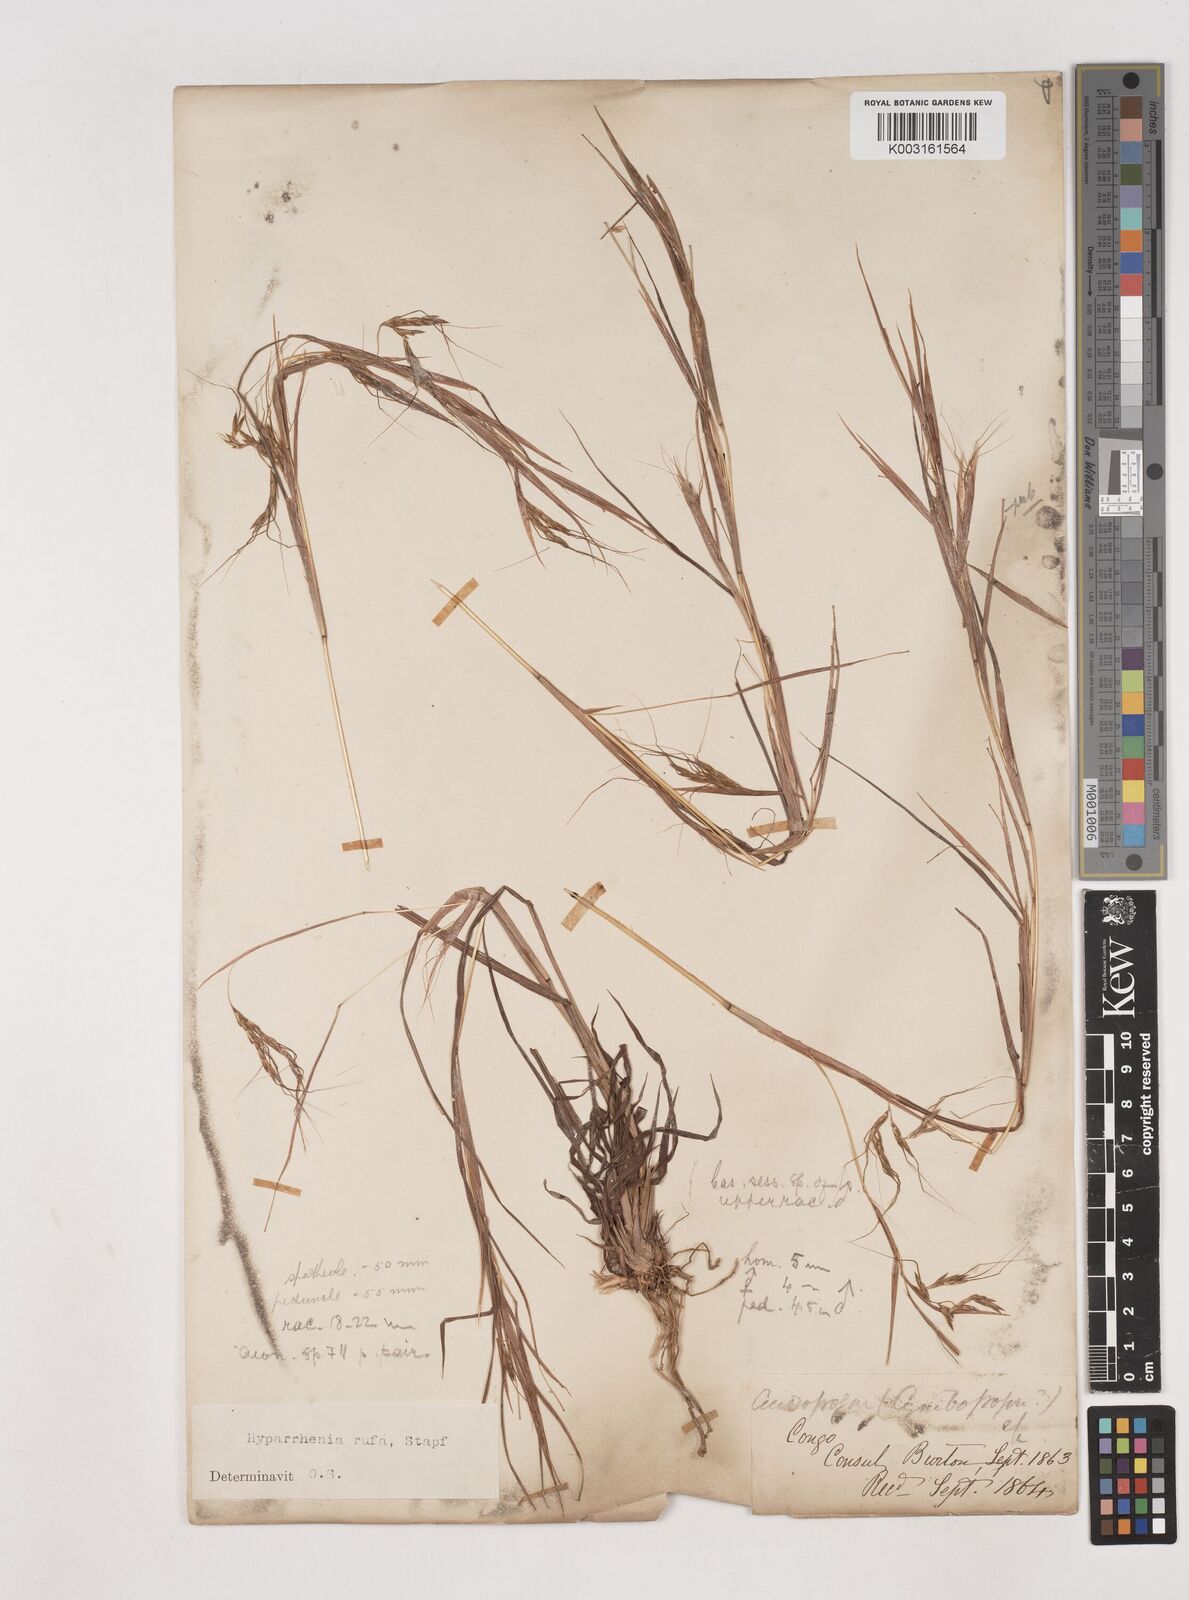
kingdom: Plantae
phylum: Tracheophyta
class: Liliopsida
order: Poales
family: Poaceae
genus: Hyparrhenia
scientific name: Hyparrhenia rufa
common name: Jaraguagrass
